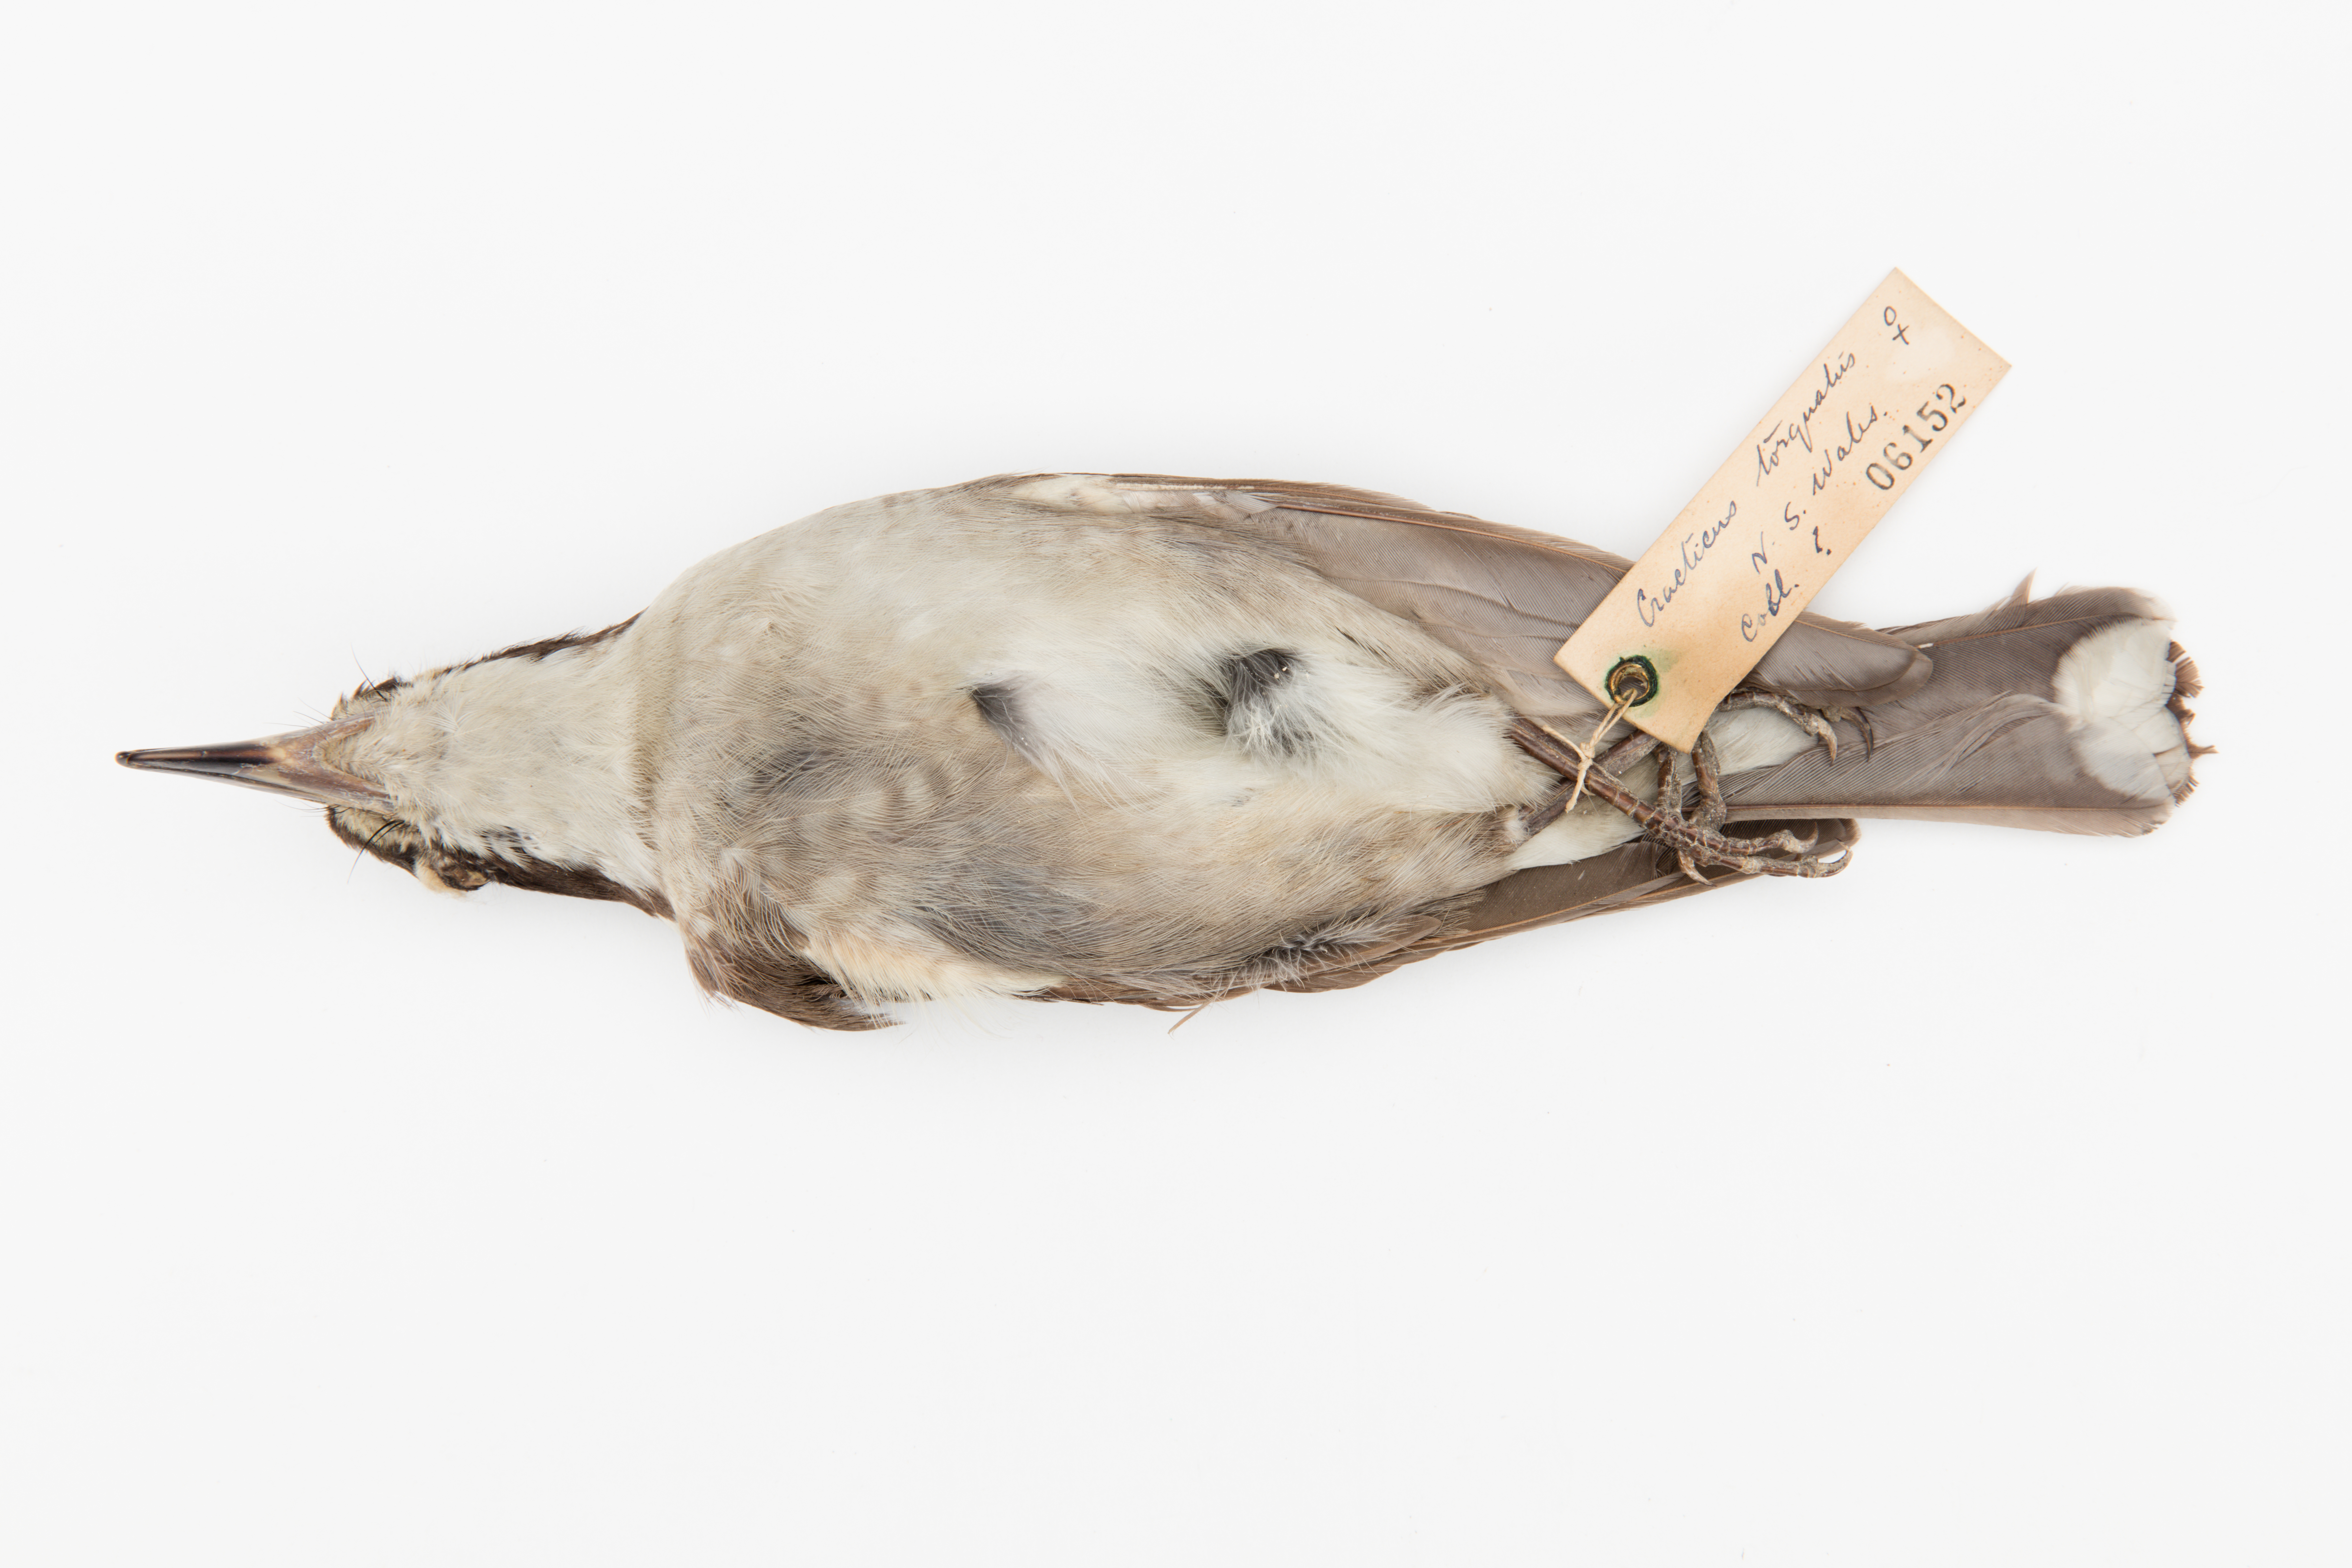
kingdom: Animalia
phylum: Chordata
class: Aves
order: Passeriformes
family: Cracticidae
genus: Cracticus
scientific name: Cracticus torquatus
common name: Grey butcherbird
